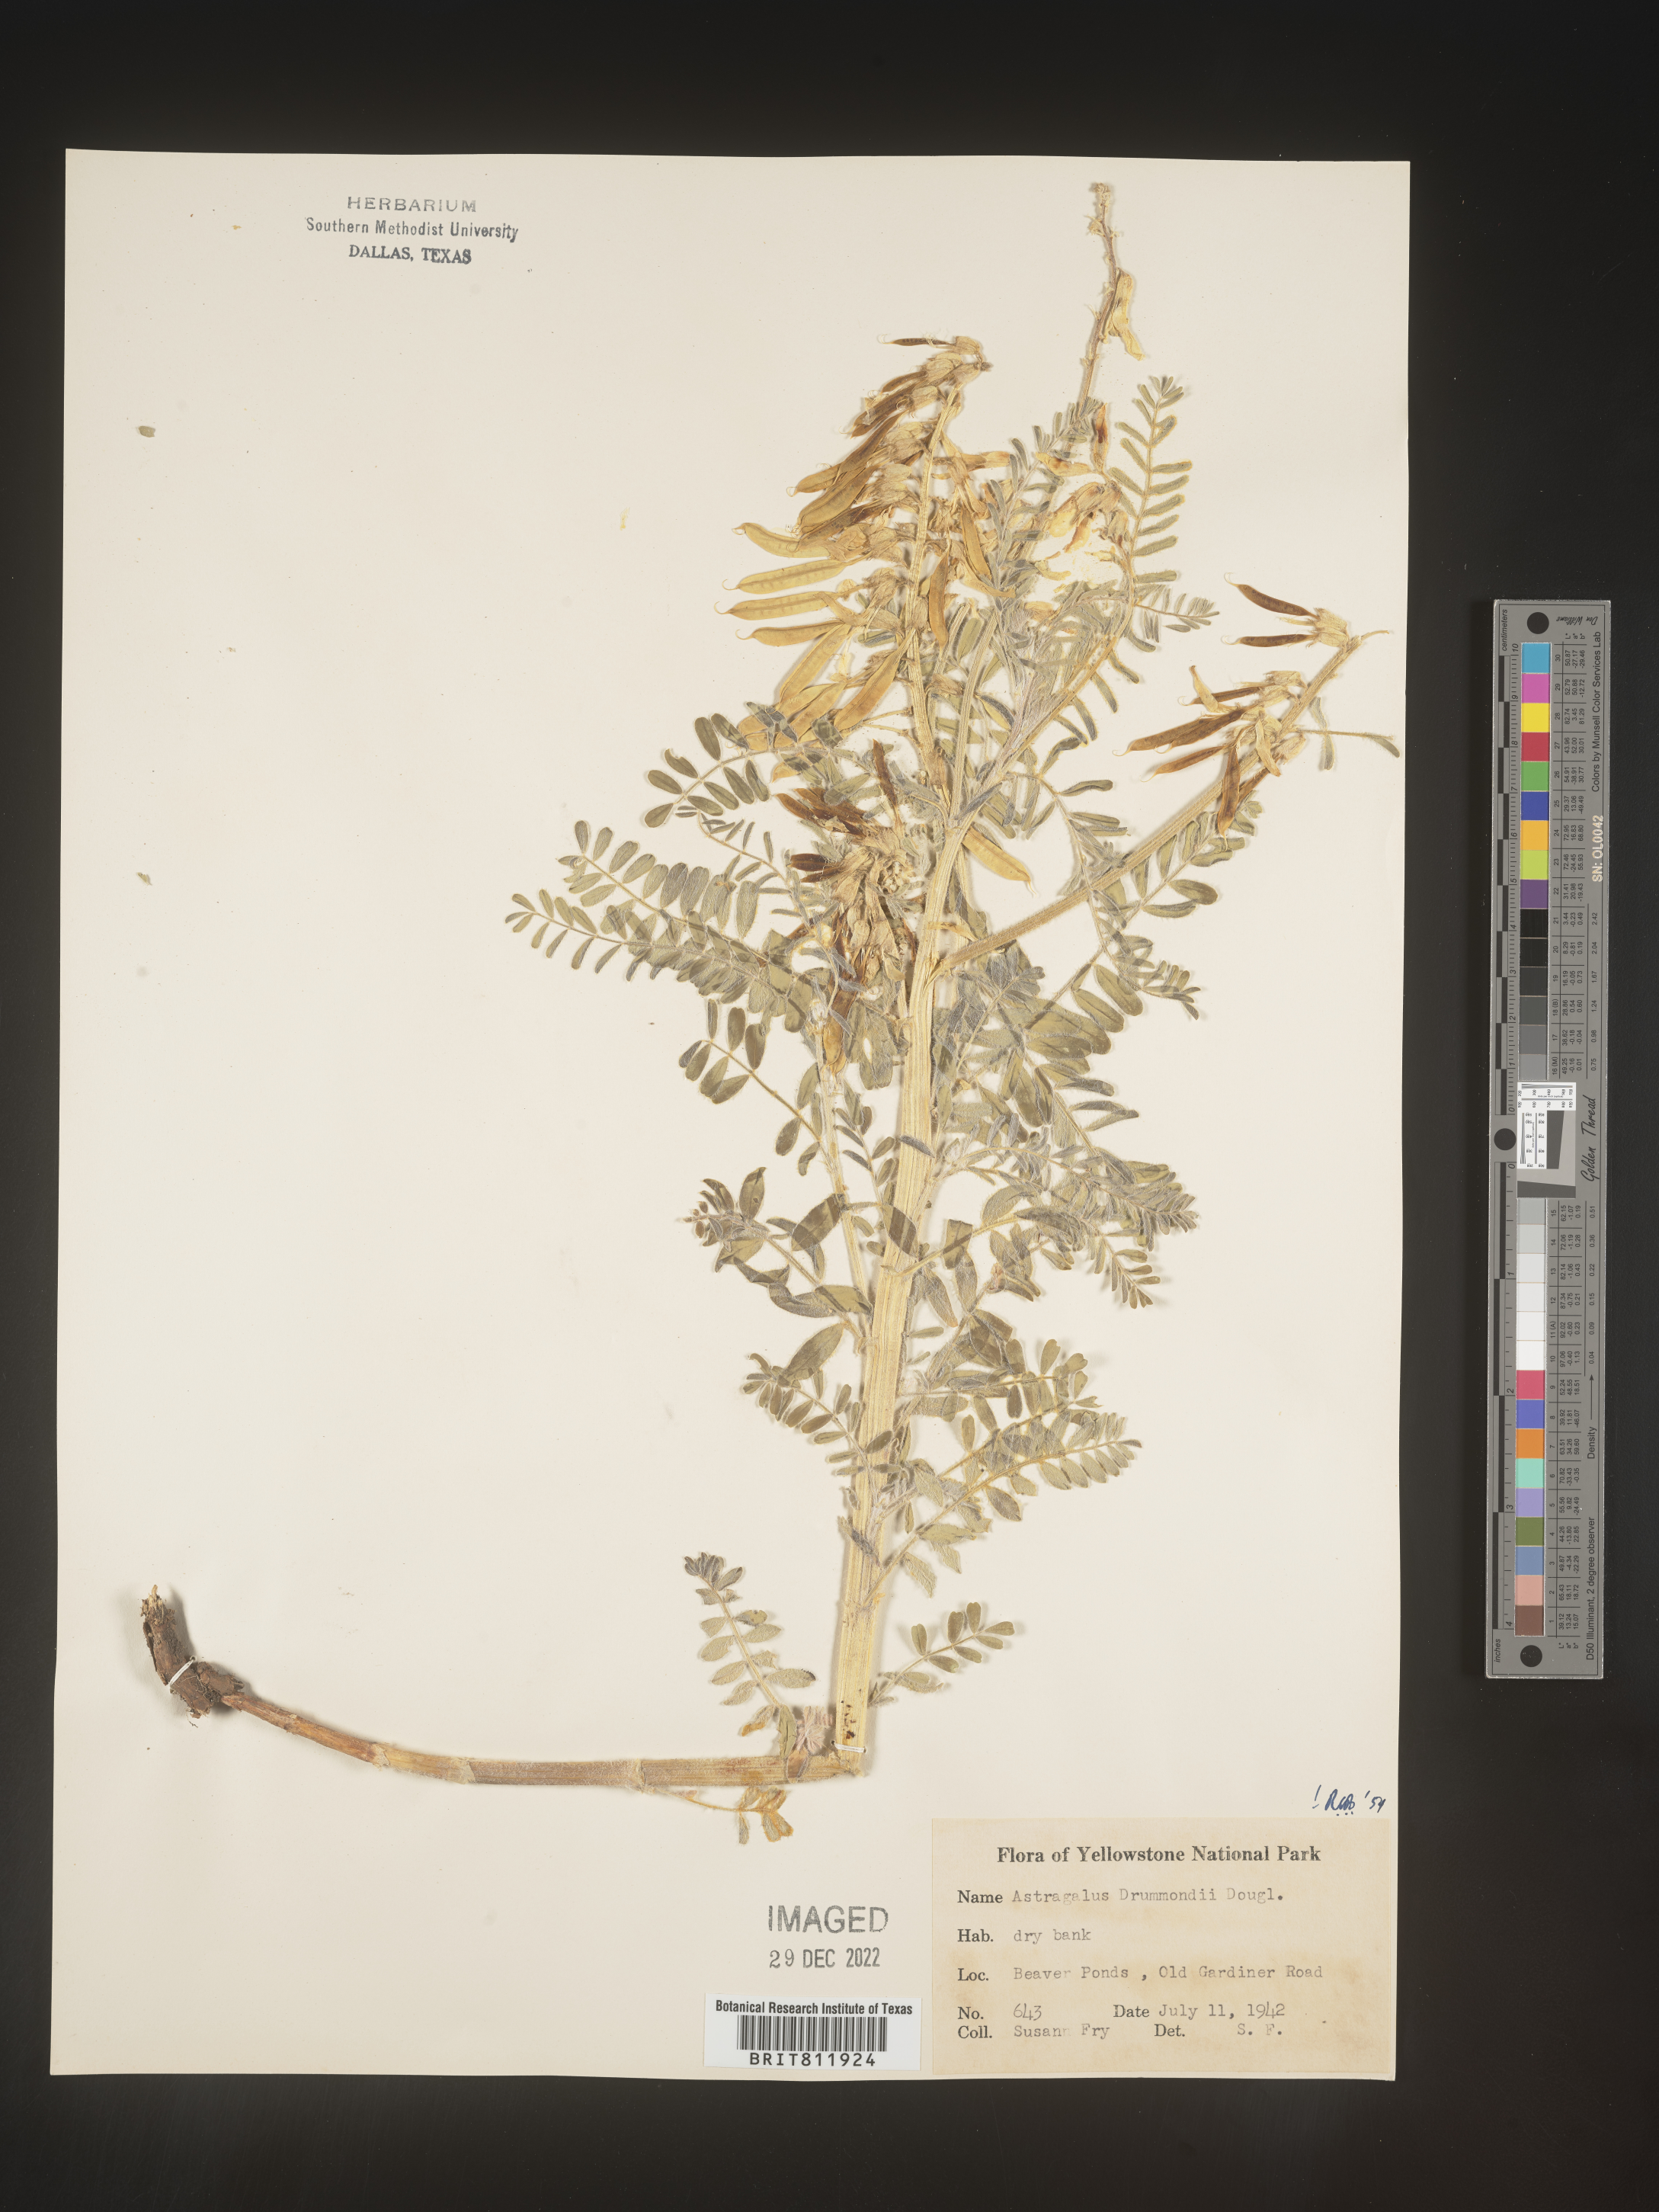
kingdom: Plantae
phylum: Tracheophyta
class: Magnoliopsida
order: Fabales
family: Fabaceae
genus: Astragalus
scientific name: Astragalus drummondii
